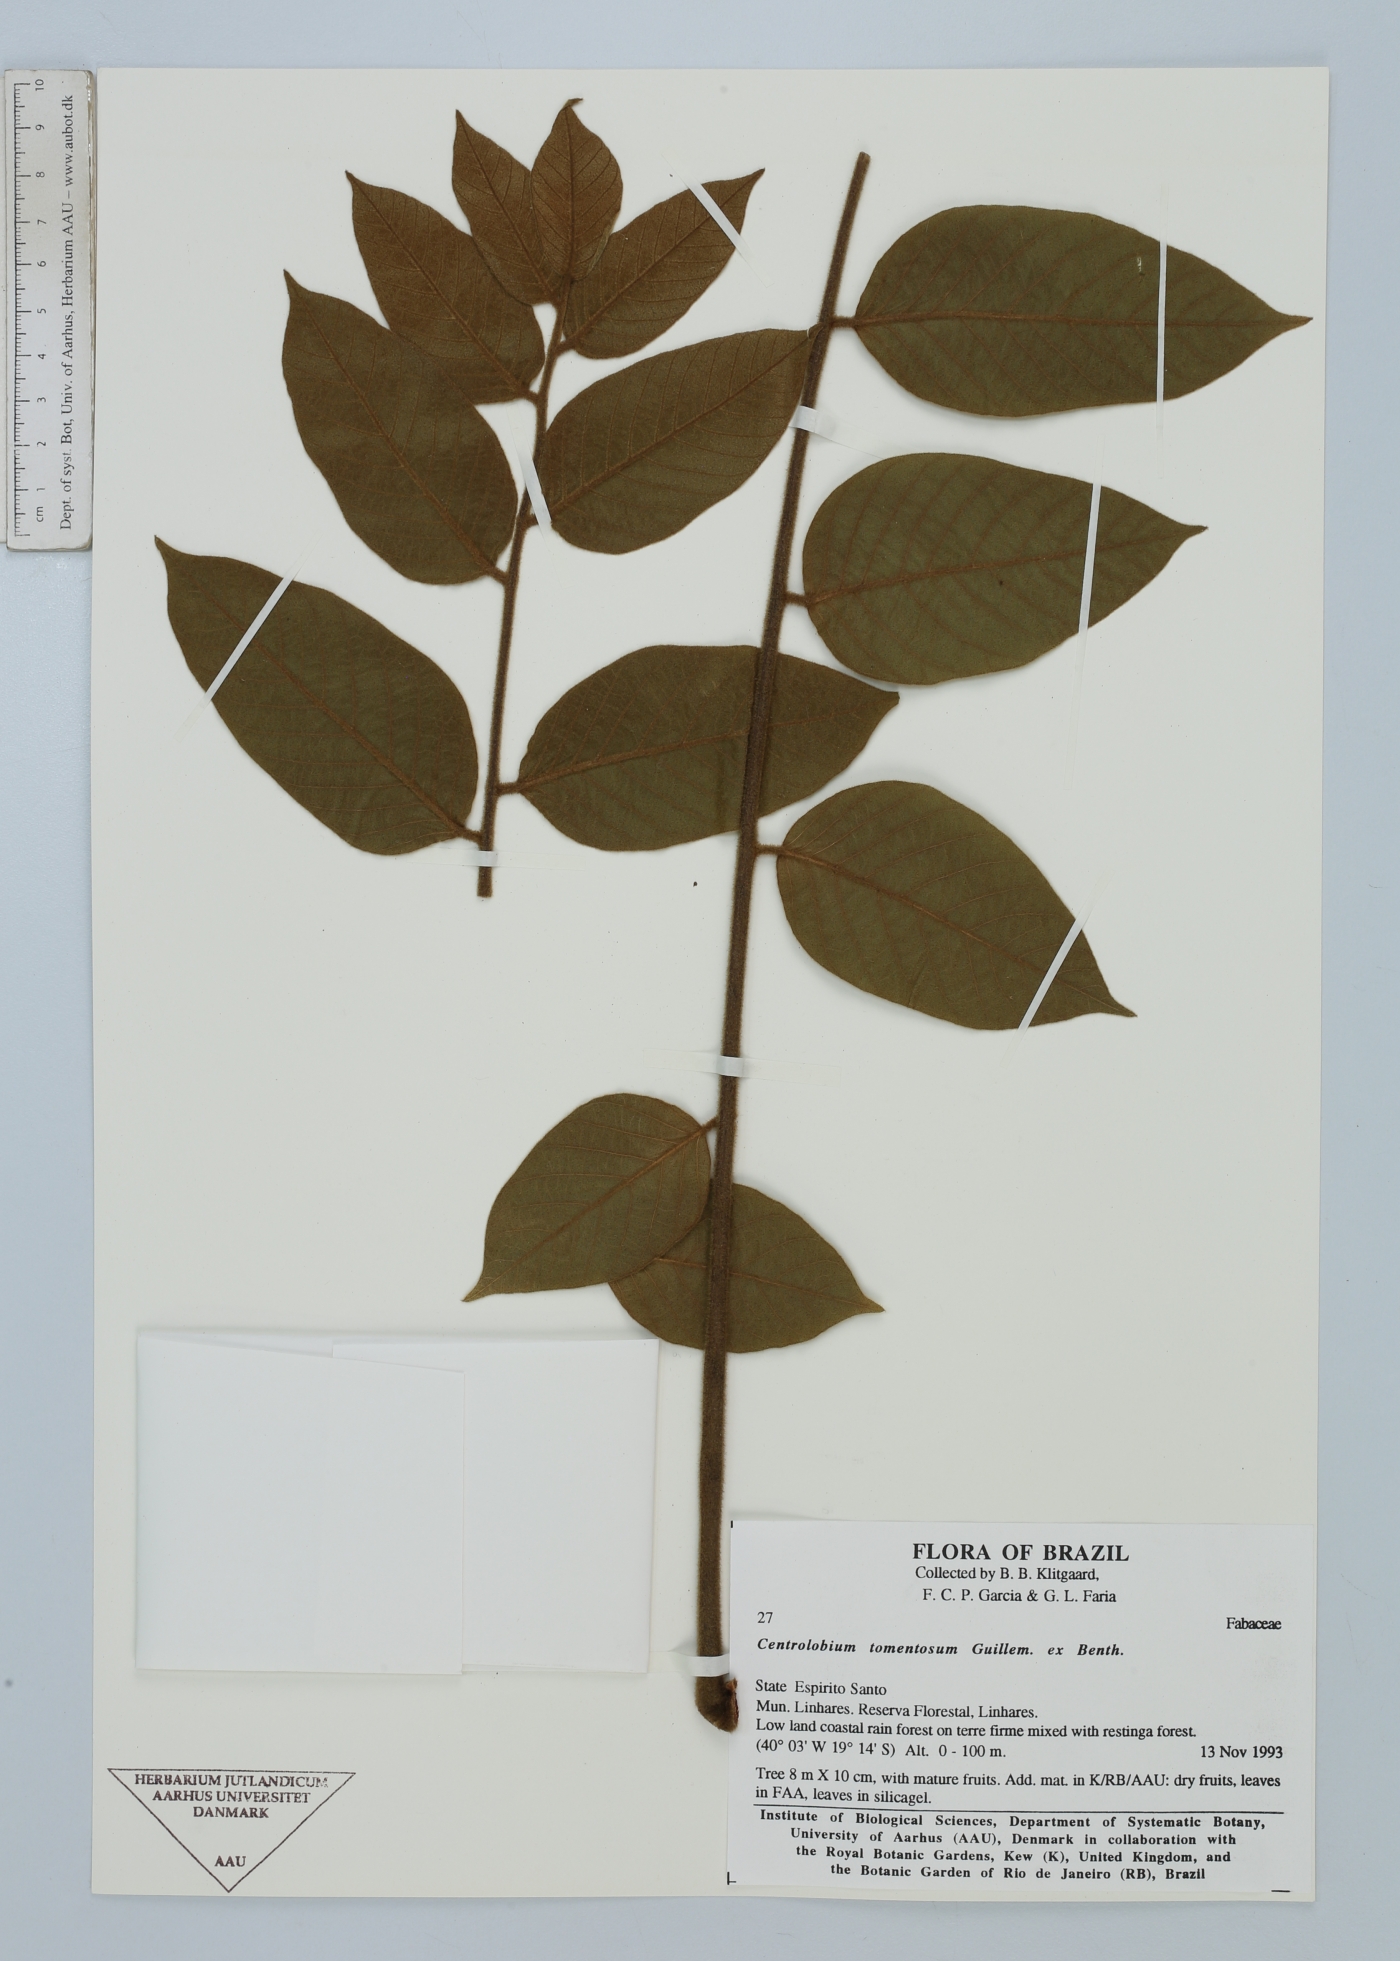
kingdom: Plantae
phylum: Tracheophyta
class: Magnoliopsida
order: Fabales
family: Fabaceae
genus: Centrolobium
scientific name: Centrolobium tomentosum
